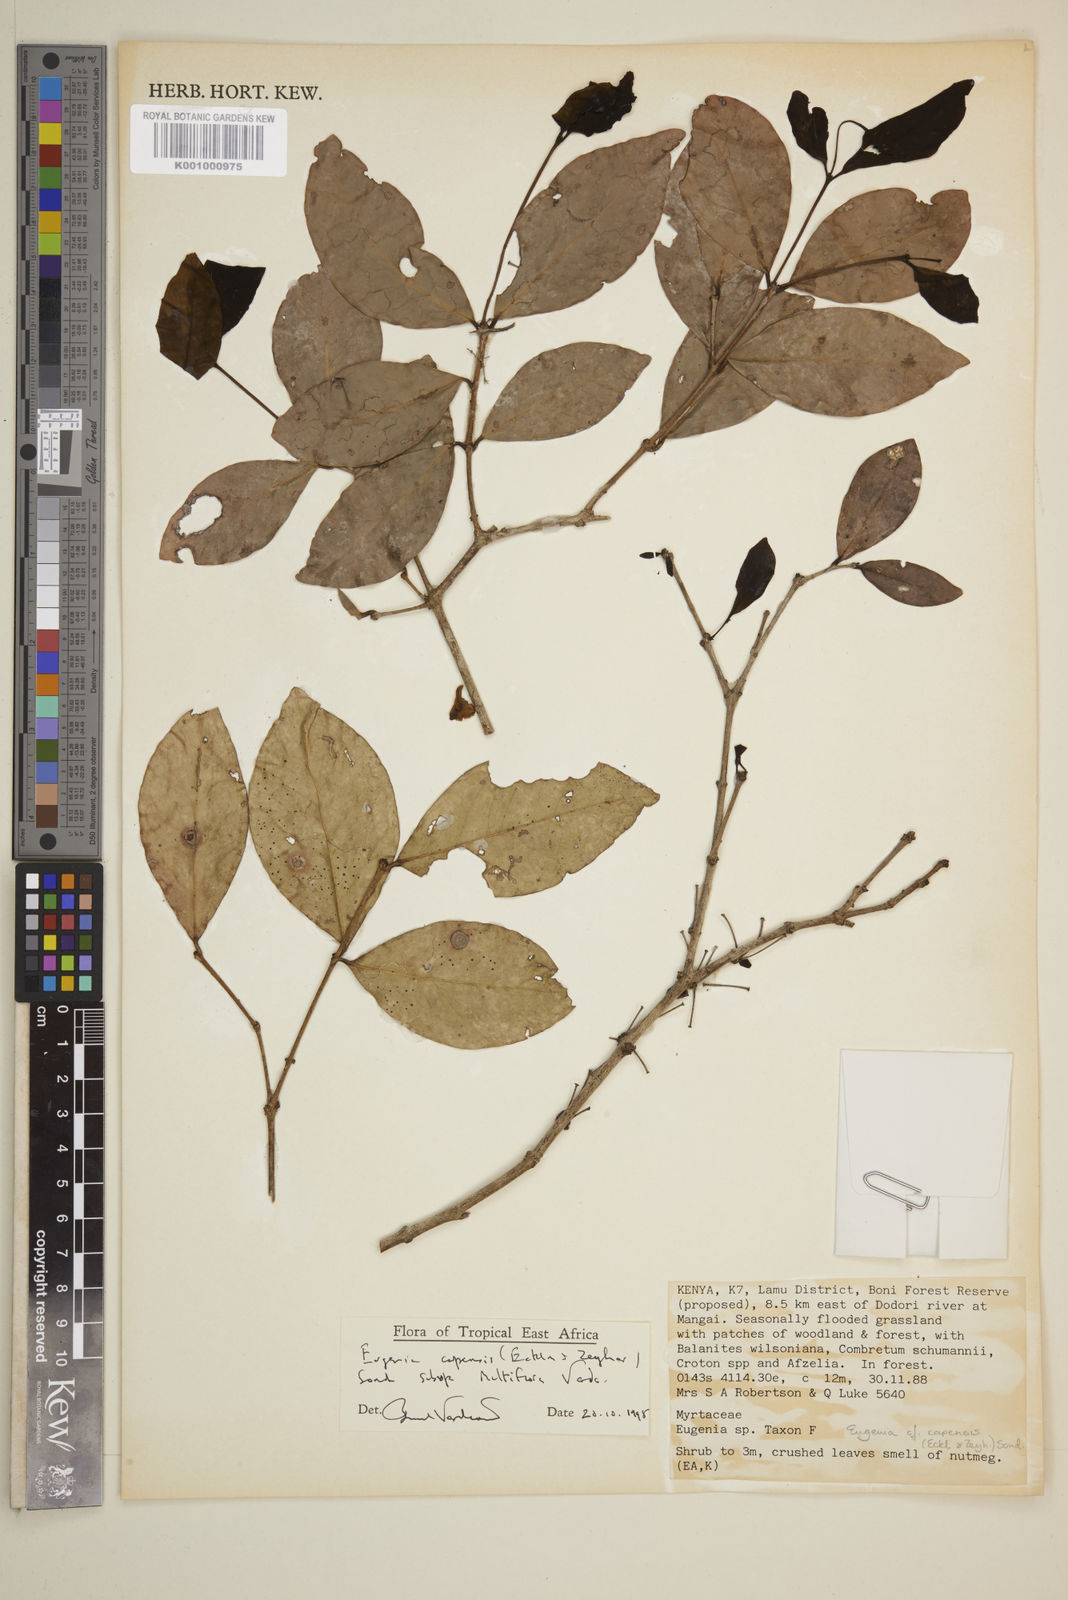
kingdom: Plantae
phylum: Tracheophyta
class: Magnoliopsida
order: Myrtales
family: Myrtaceae
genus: Eugenia
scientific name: Eugenia capensis
